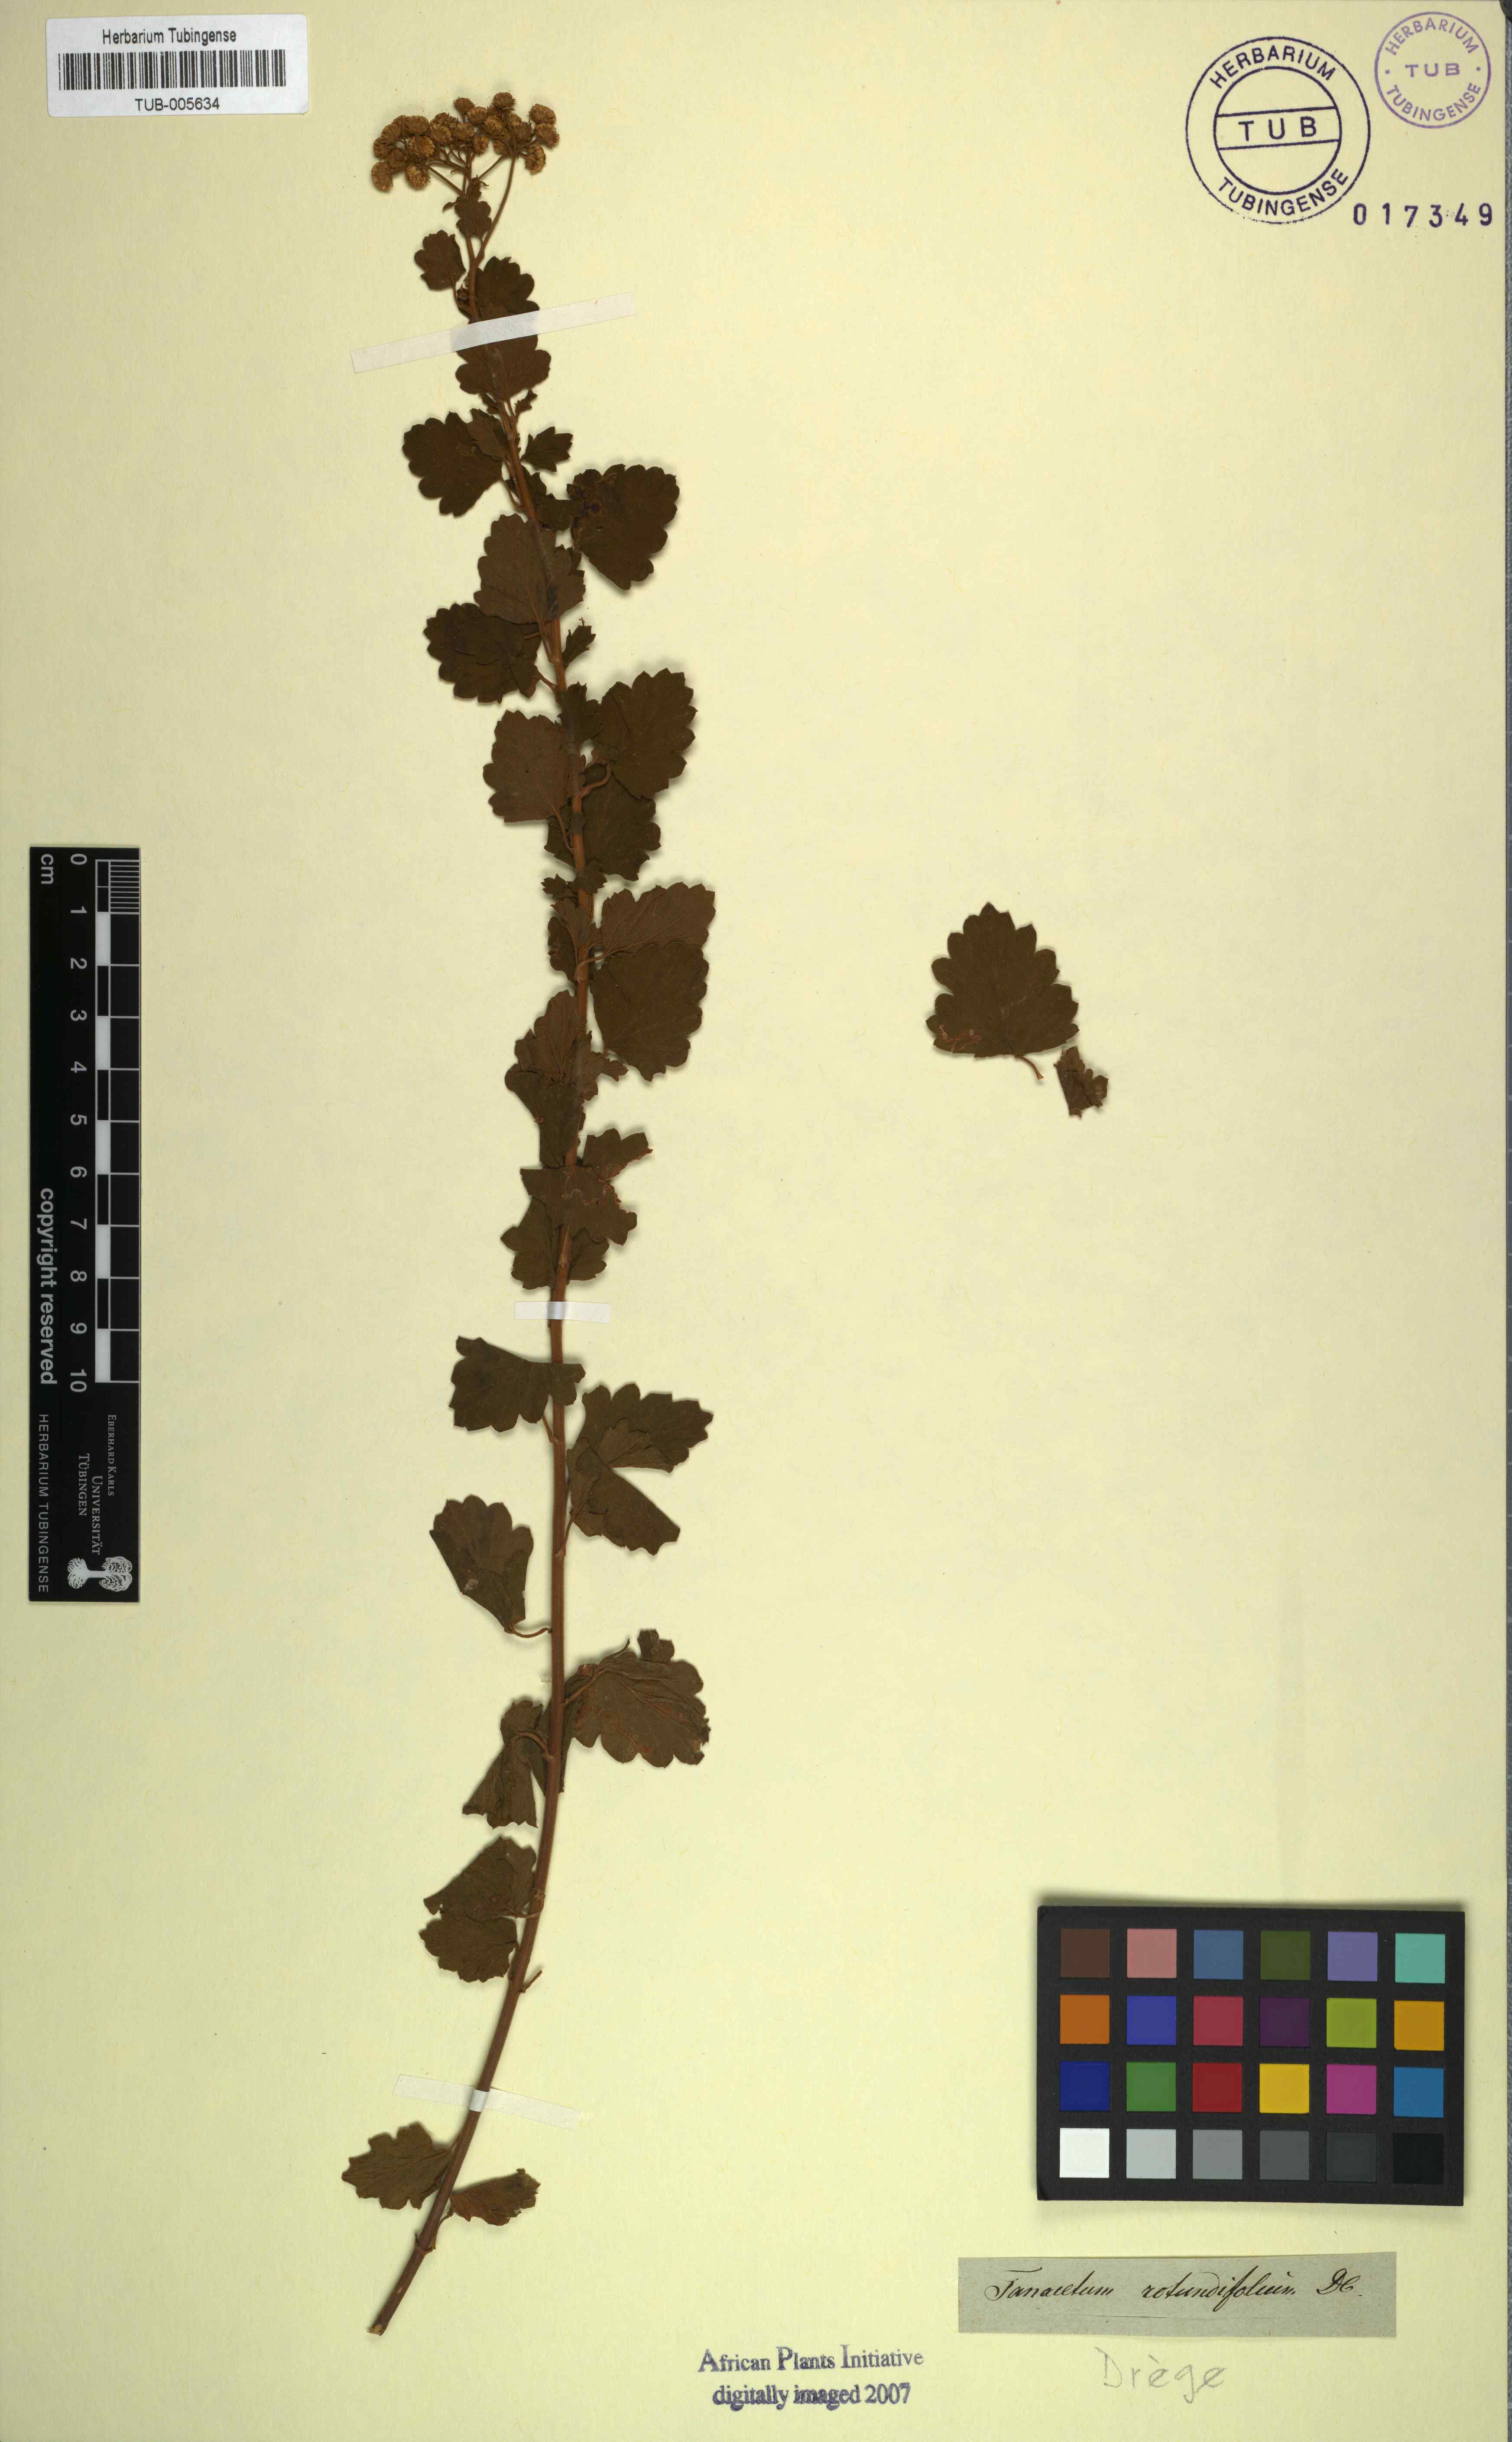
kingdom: Plantae
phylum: Tracheophyta
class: Magnoliopsida
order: Asterales
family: Asteraceae
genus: Schistostephium
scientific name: Schistostephium rotundifolium
